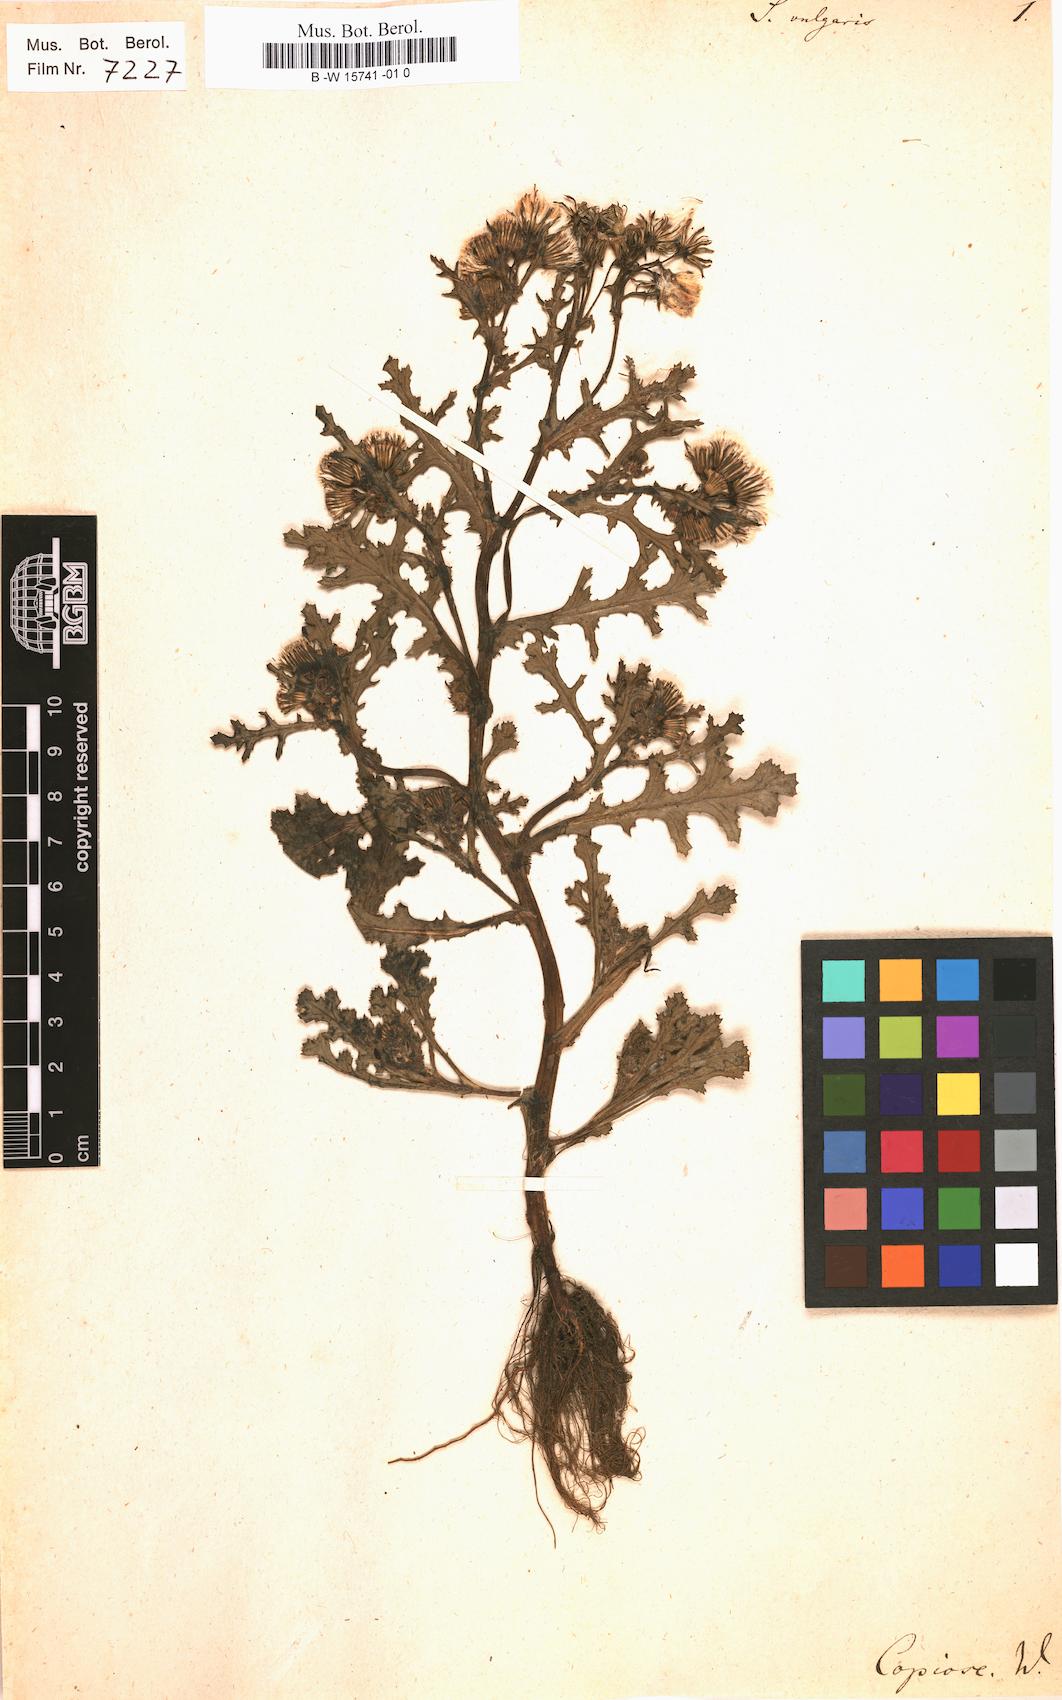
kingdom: Plantae
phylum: Tracheophyta
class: Magnoliopsida
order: Asterales
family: Asteraceae
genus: Senecio
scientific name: Senecio vulgaris
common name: Old-man-in-the-spring
